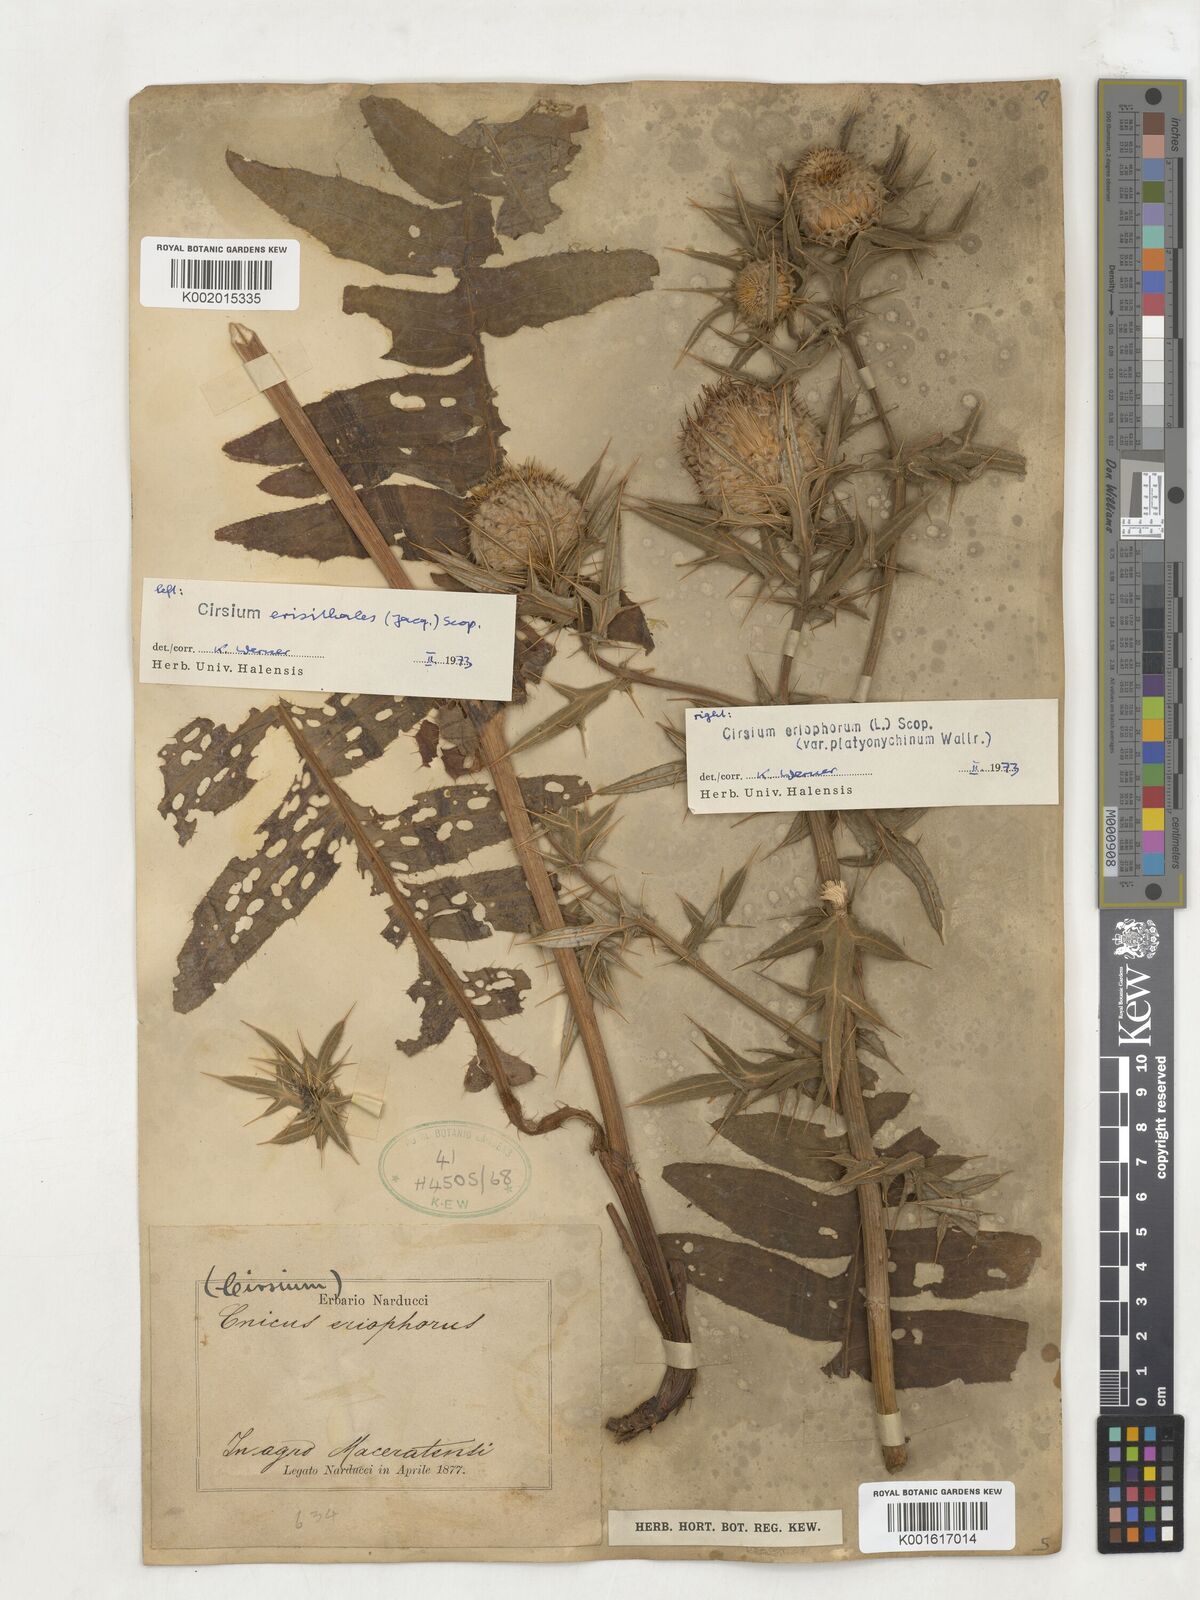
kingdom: Plantae
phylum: Tracheophyta
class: Magnoliopsida
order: Asterales
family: Asteraceae
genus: Lophiolepis
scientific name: Lophiolepis eriophora
